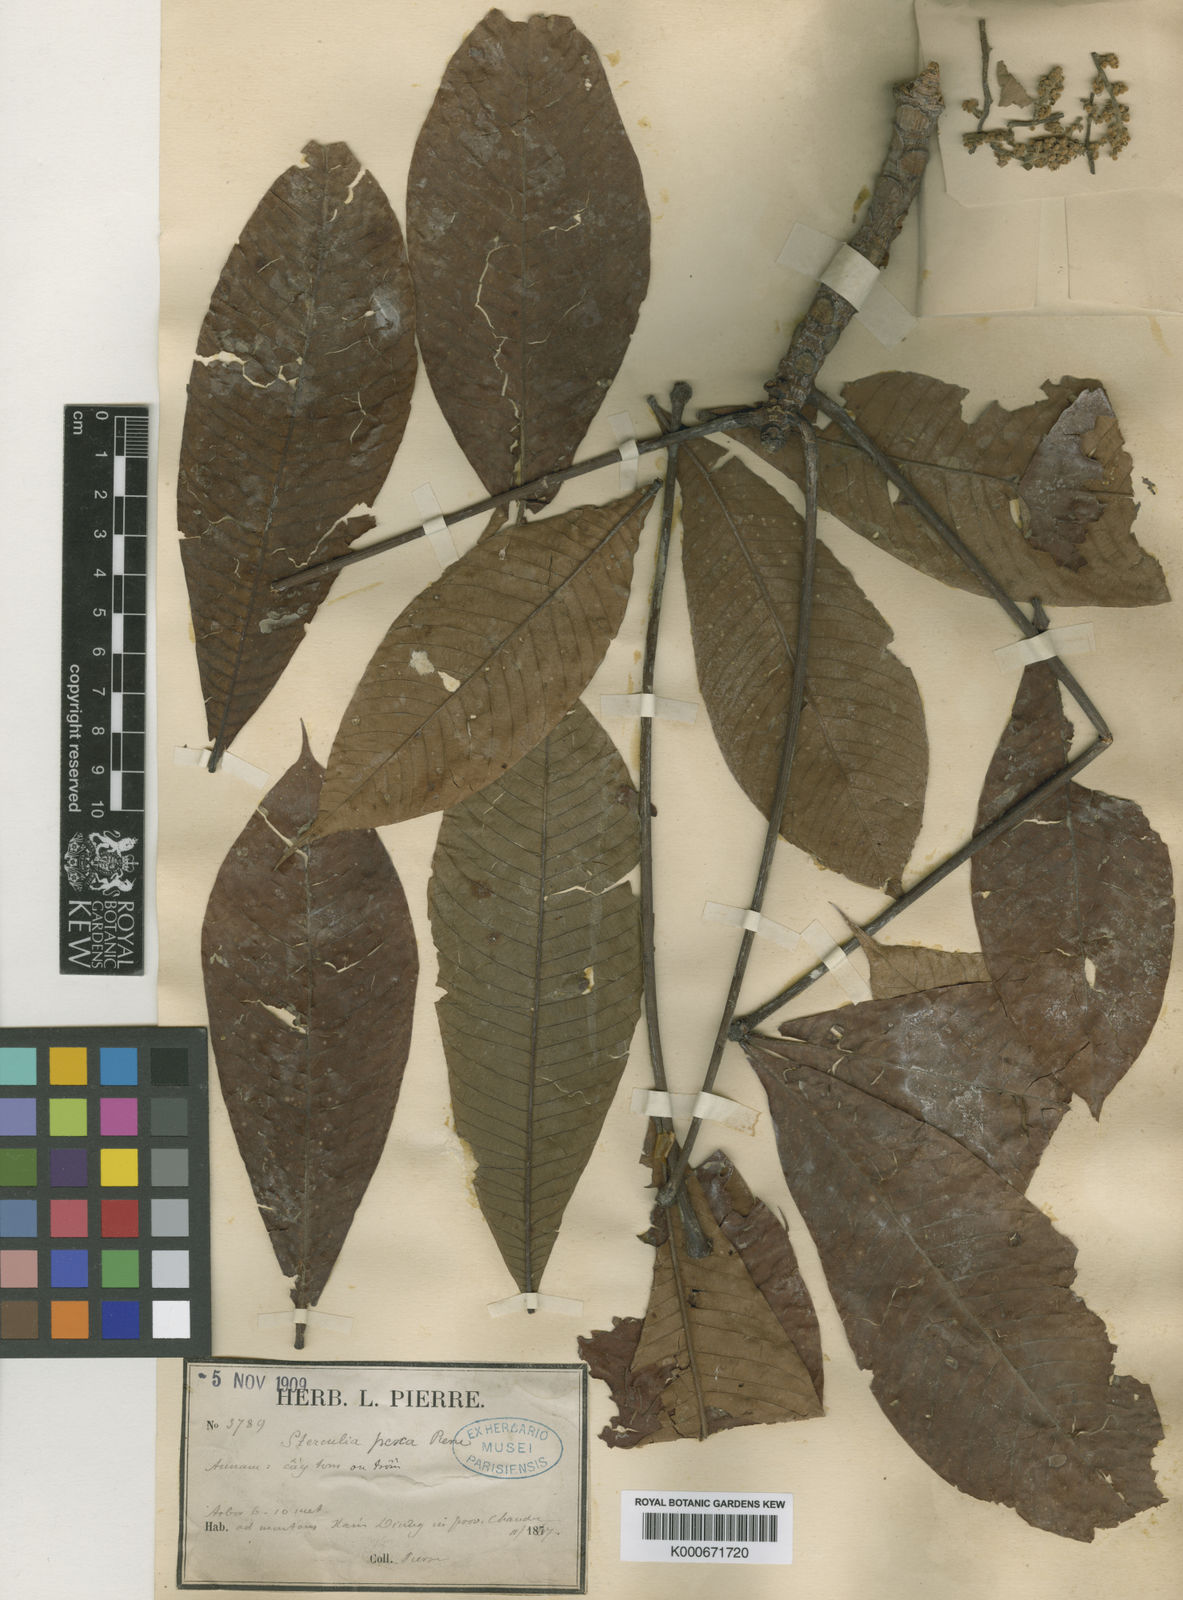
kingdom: Plantae
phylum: Tracheophyta
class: Magnoliopsida
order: Malvales
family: Malvaceae
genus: Sterculia
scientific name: Sterculia pexa
